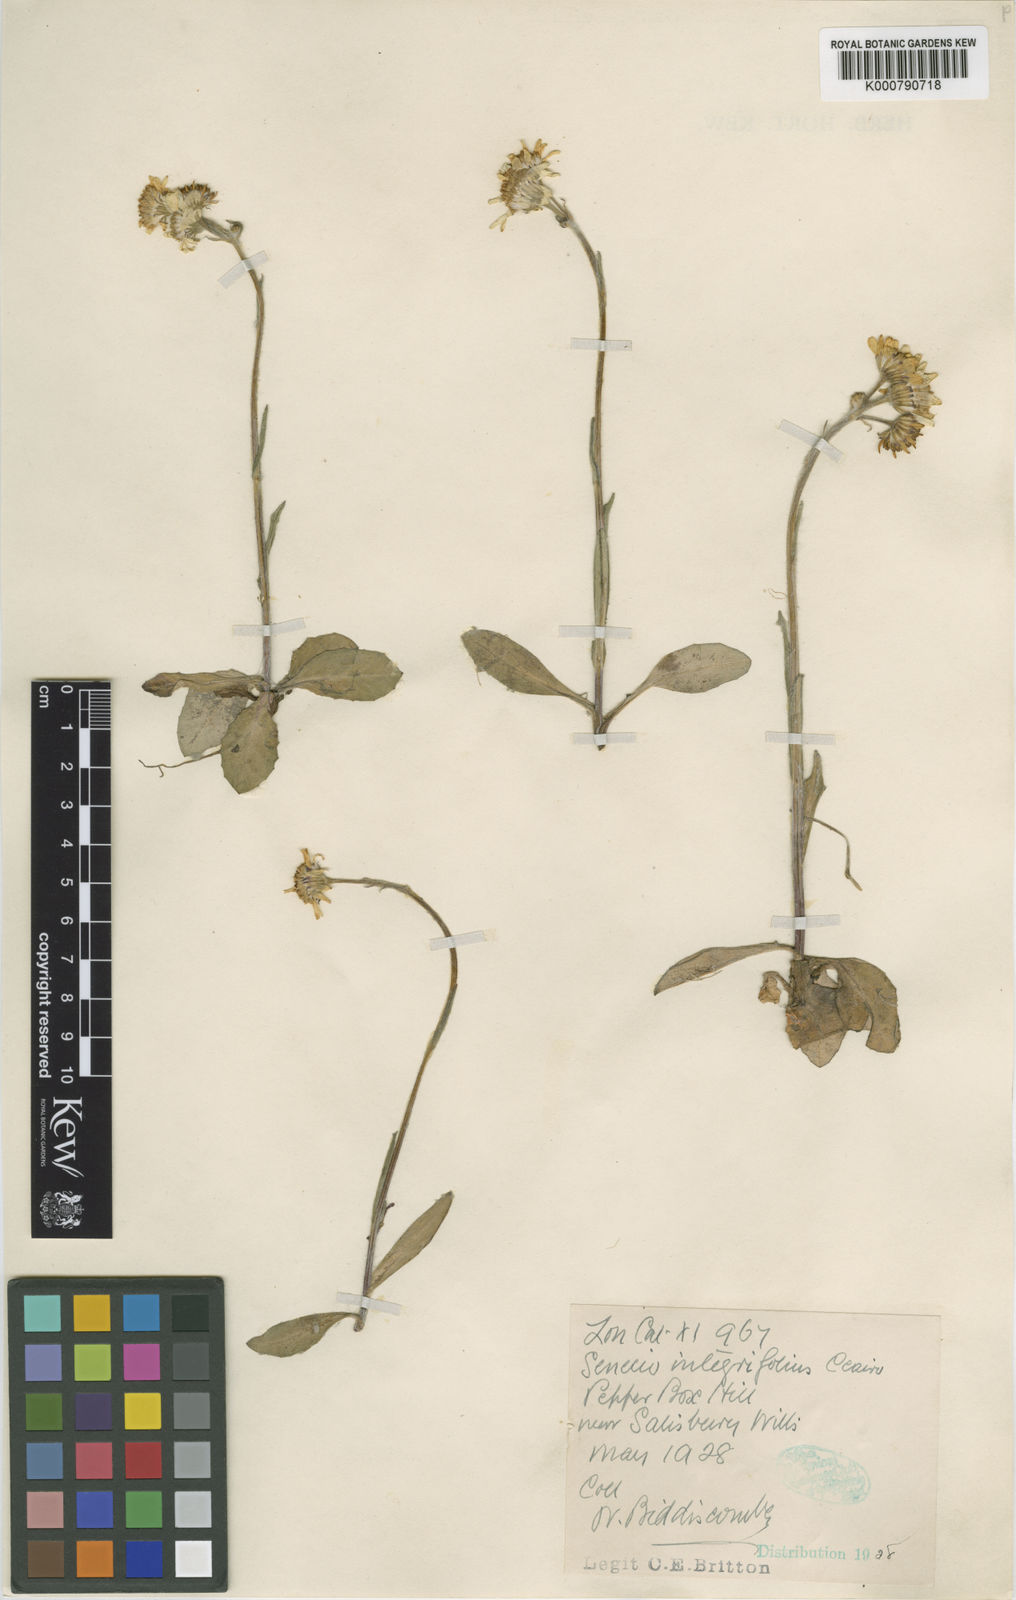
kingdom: Plantae
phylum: Tracheophyta
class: Magnoliopsida
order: Asterales
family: Asteraceae
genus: Tephroseris
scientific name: Tephroseris integrifolia
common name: Field fleawort
